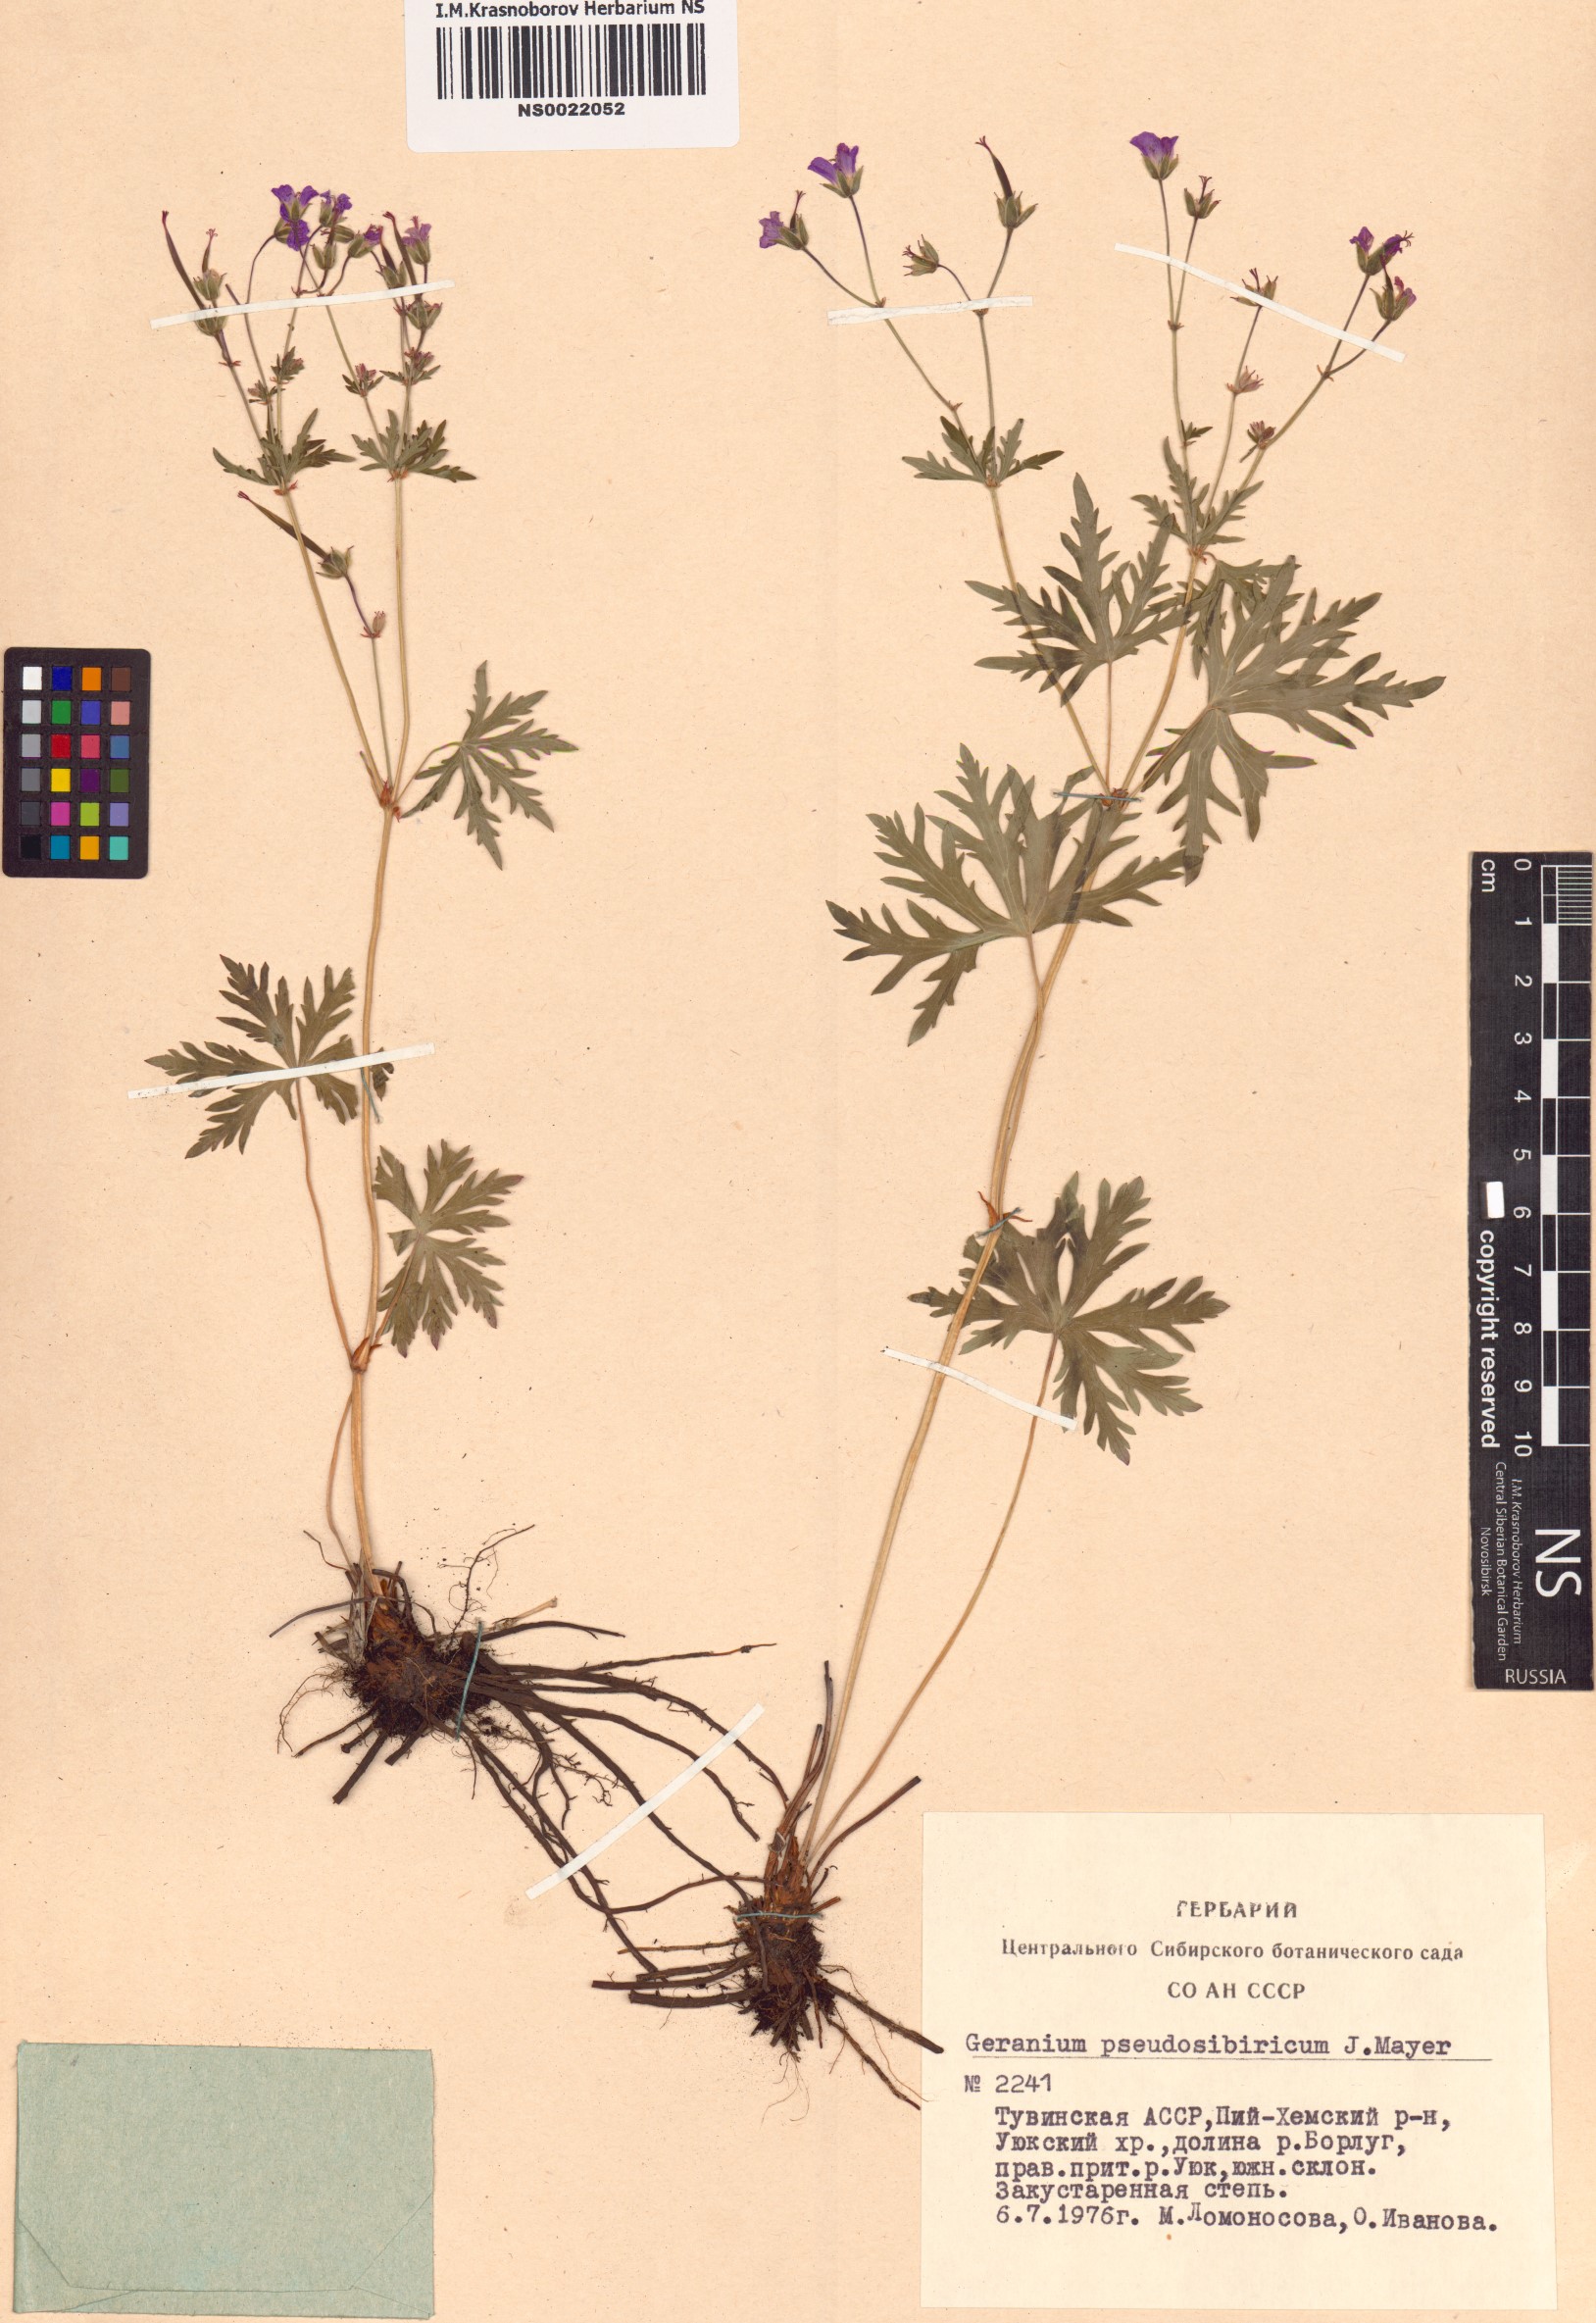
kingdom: Plantae
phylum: Tracheophyta
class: Magnoliopsida
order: Geraniales
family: Geraniaceae
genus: Geranium
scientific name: Geranium pseudosibiricum
